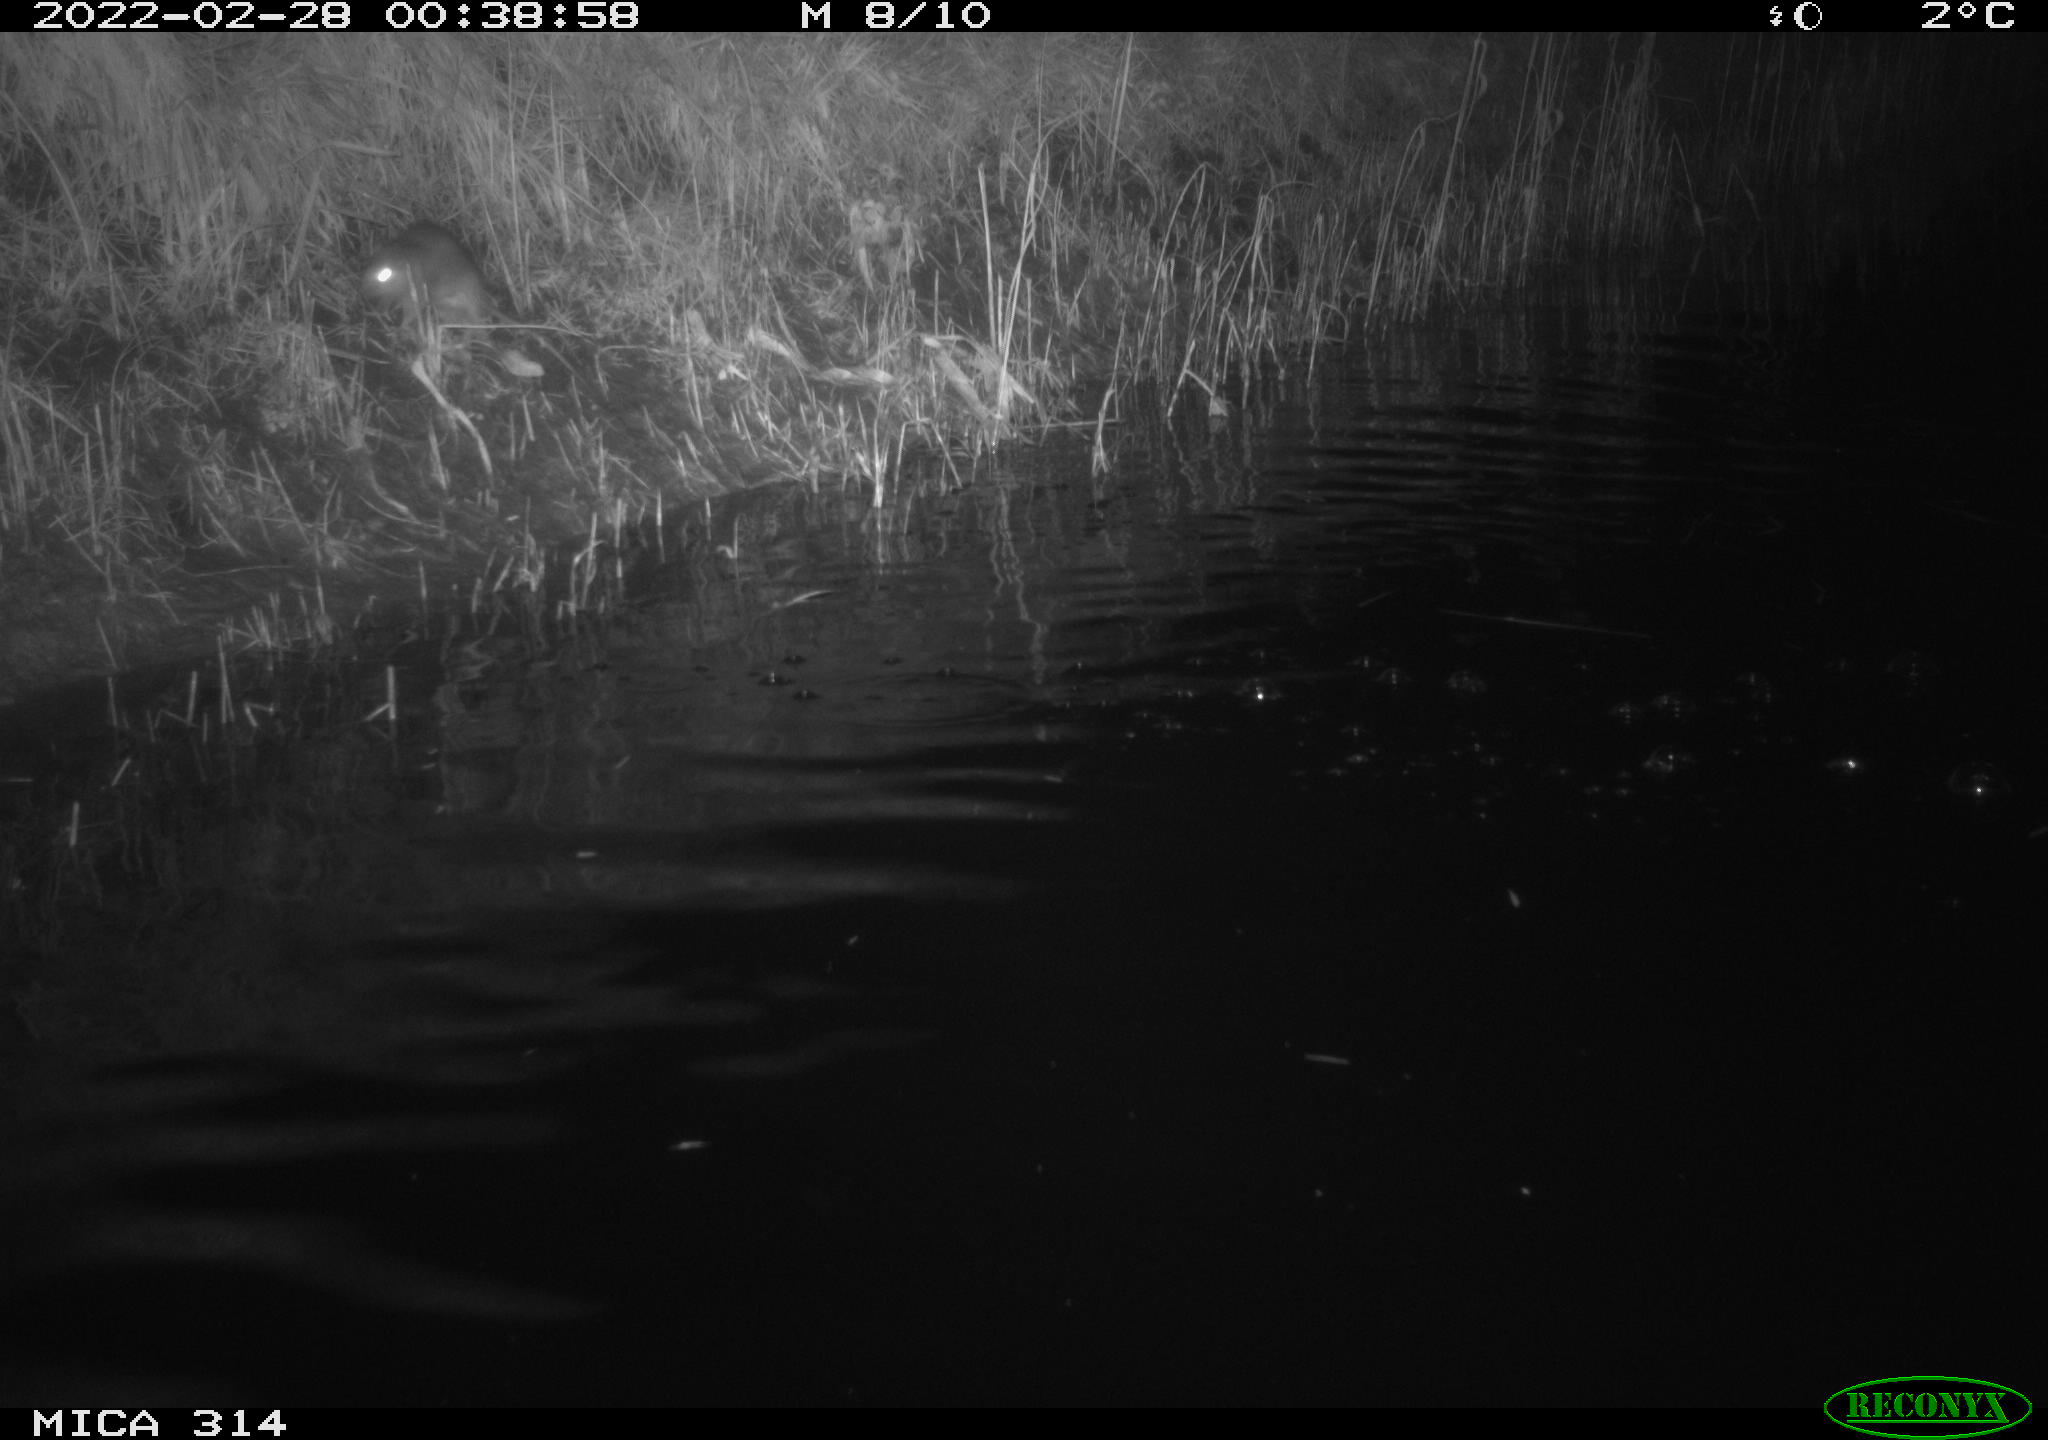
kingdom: Animalia
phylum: Chordata
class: Aves
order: Gruiformes
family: Rallidae
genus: Gallinula
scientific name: Gallinula chloropus
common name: Common moorhen
